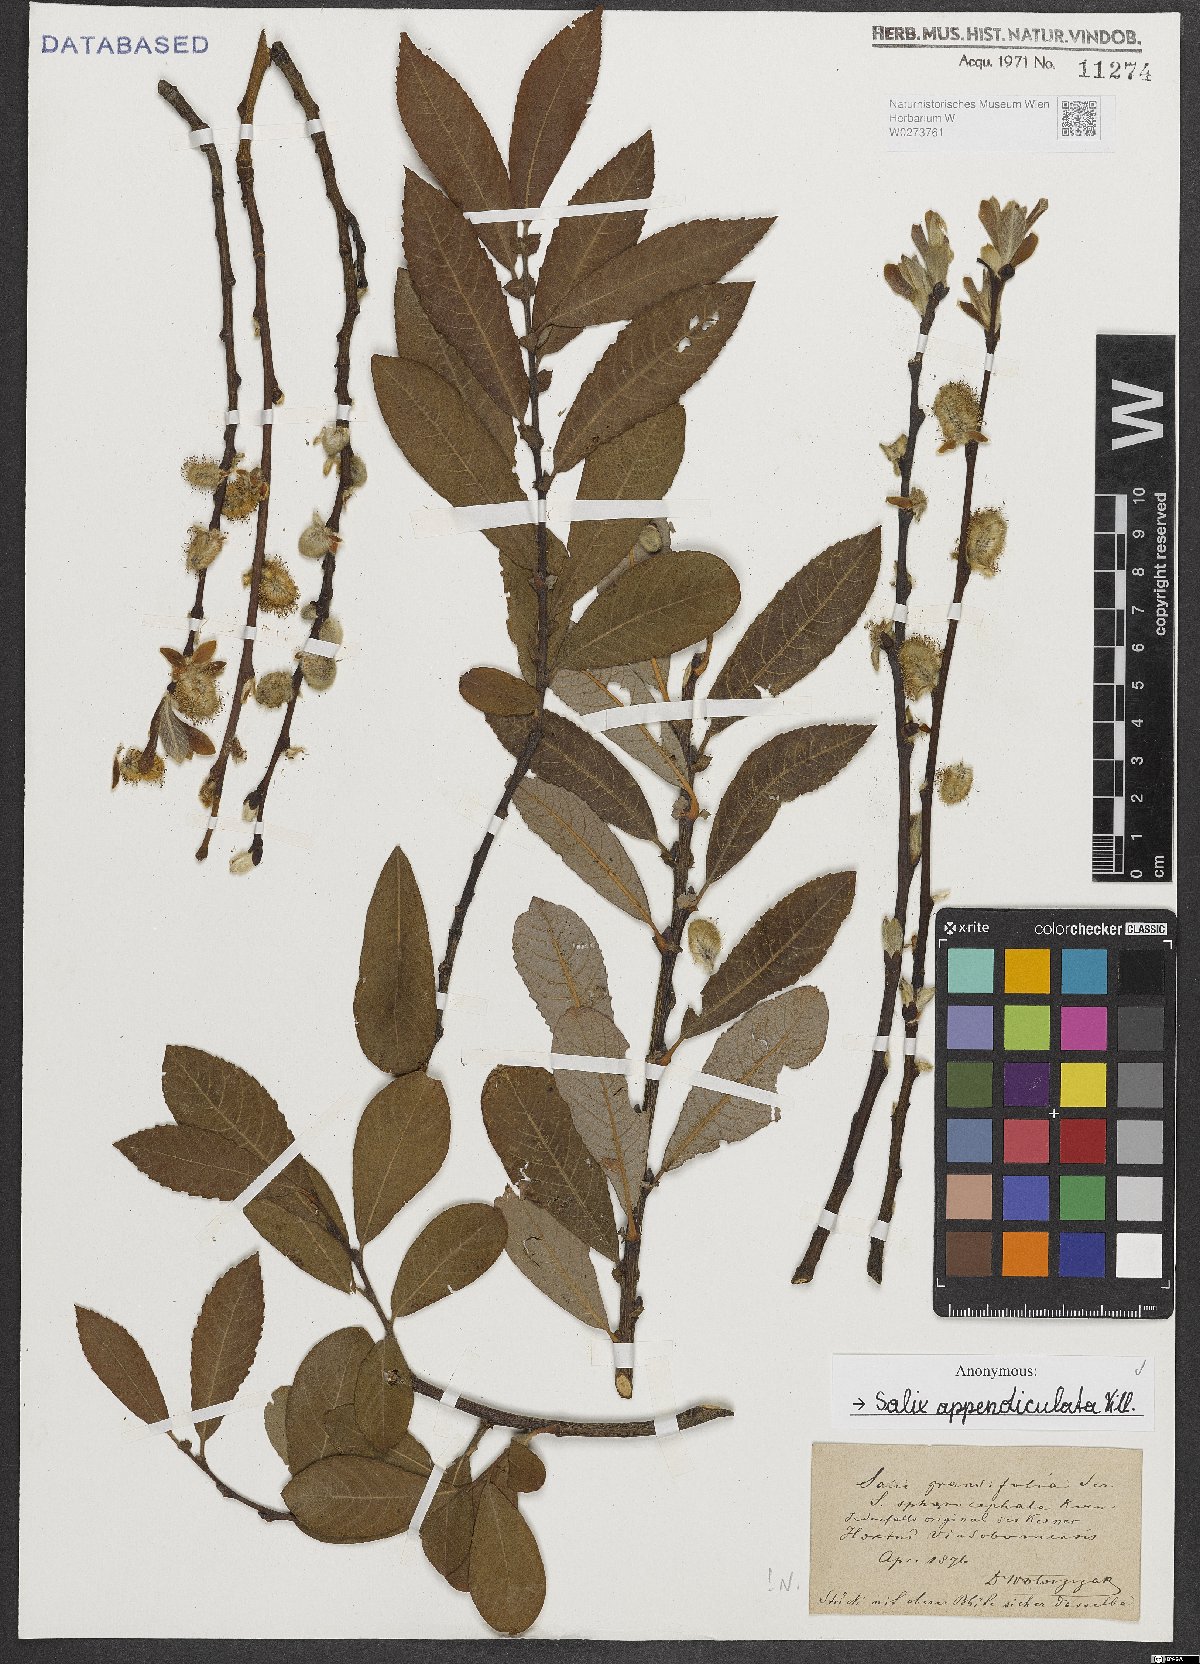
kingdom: Plantae
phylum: Tracheophyta
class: Magnoliopsida
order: Malpighiales
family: Salicaceae
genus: Salix
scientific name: Salix appendiculata
